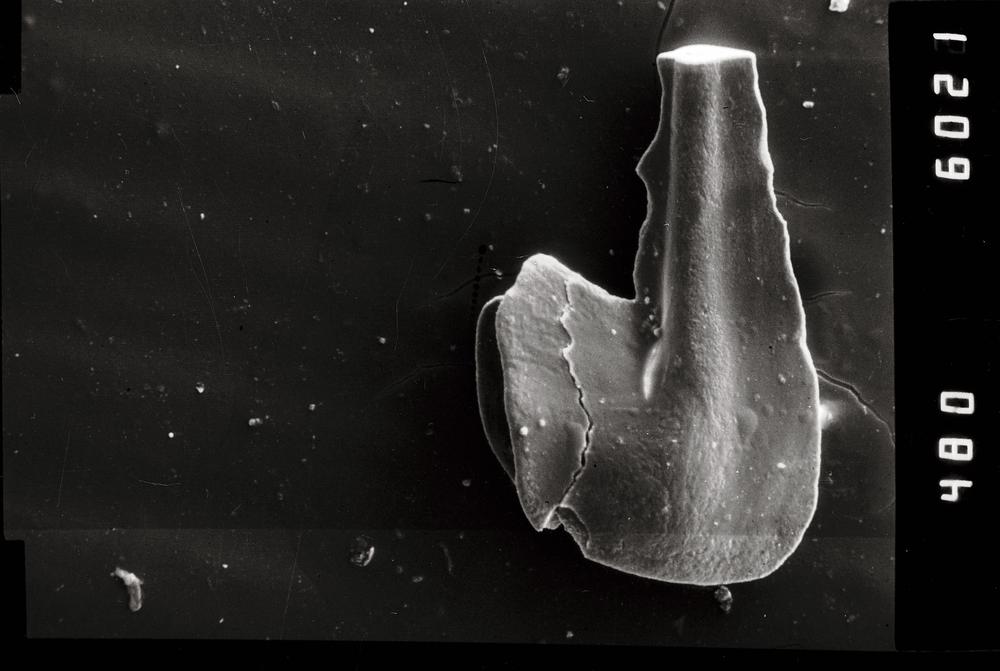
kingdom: Animalia
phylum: Chordata
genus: Paroistodus
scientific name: Paroistodus Drepanodus proteus
